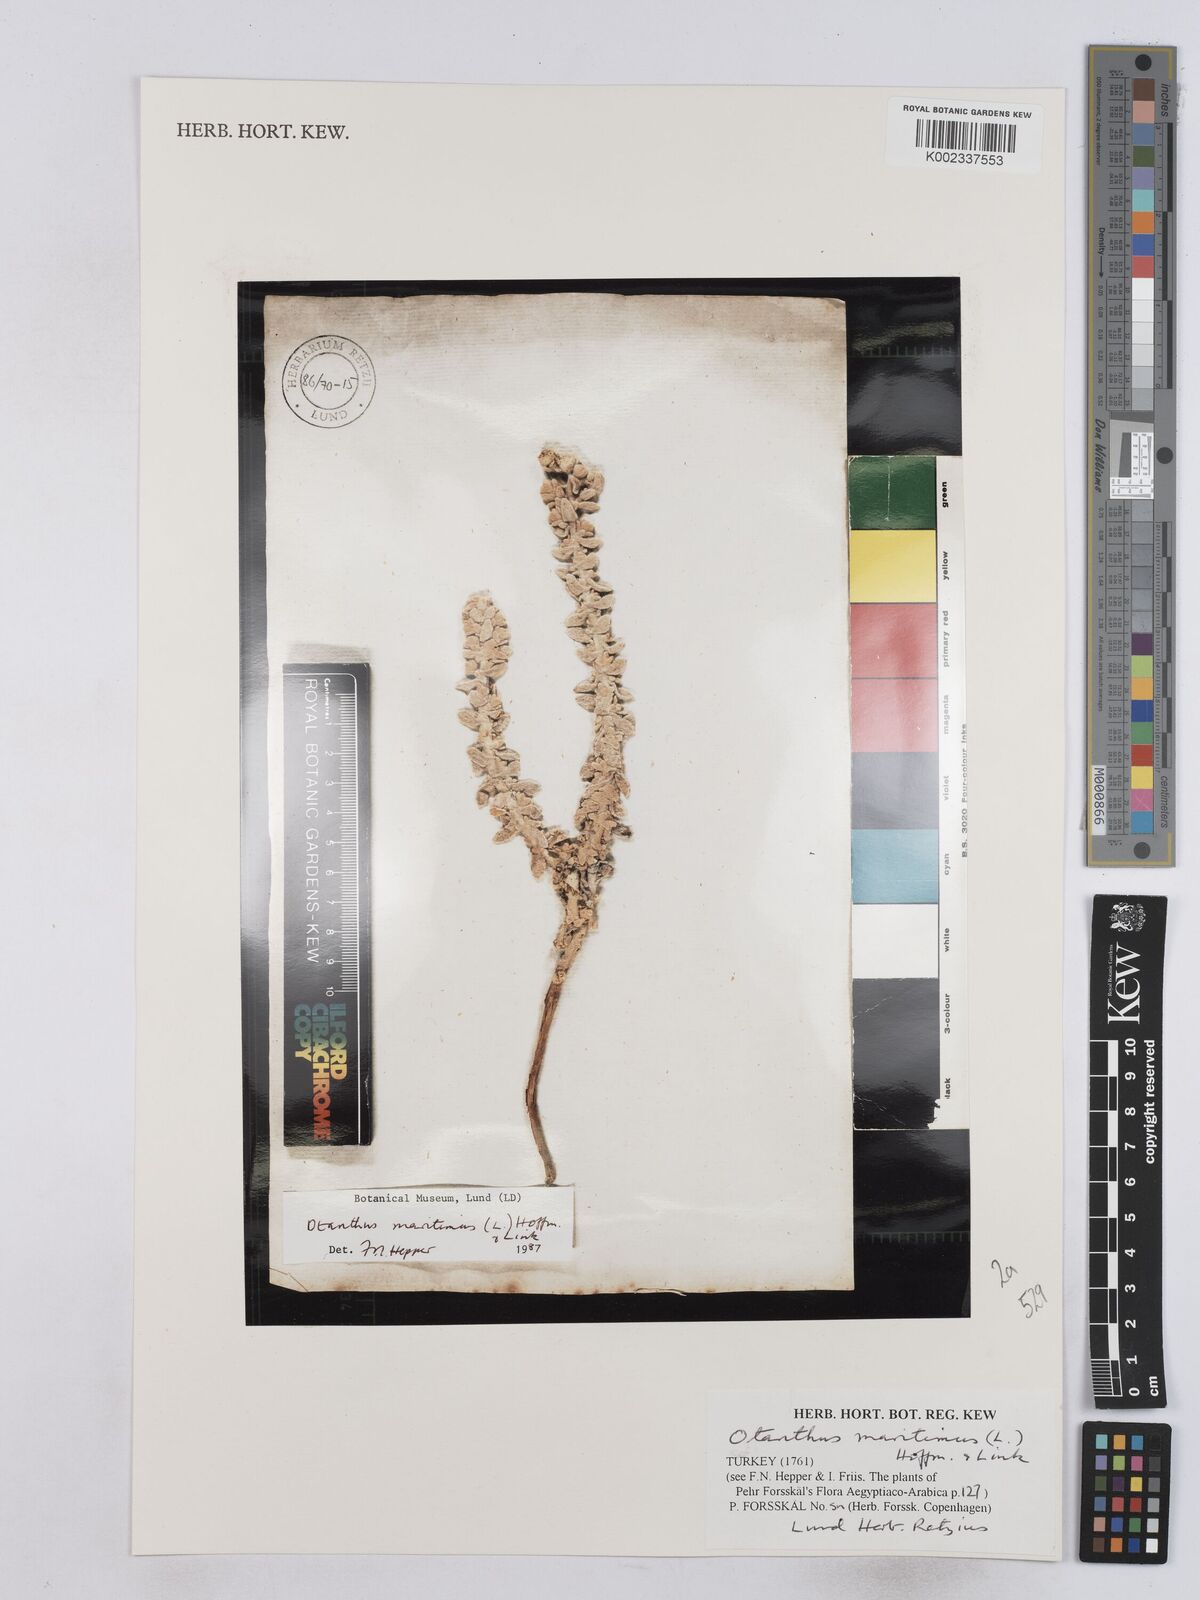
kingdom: Plantae
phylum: Tracheophyta
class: Magnoliopsida
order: Asterales
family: Asteraceae
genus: Achillea
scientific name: Achillea maritima
